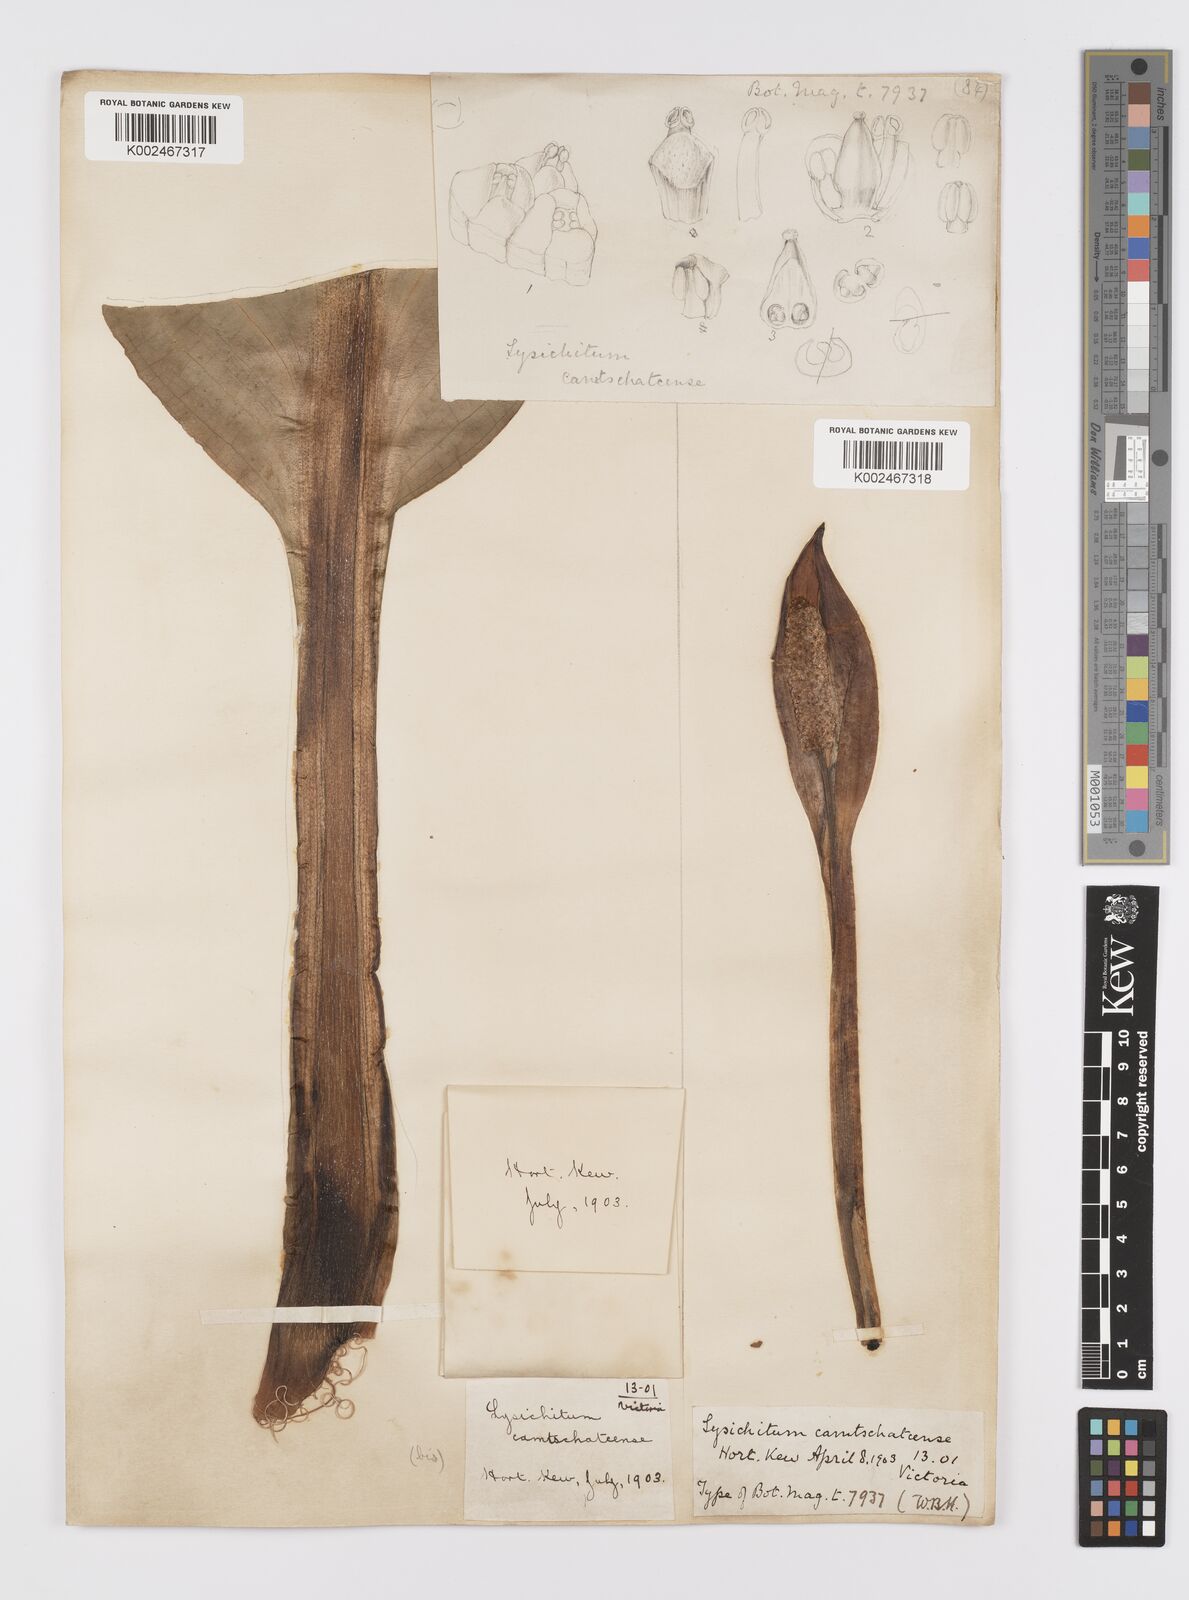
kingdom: Plantae
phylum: Tracheophyta
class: Liliopsida
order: Alismatales
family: Araceae
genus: Lysichiton
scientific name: Lysichiton americanus
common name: American skunk cabbage
